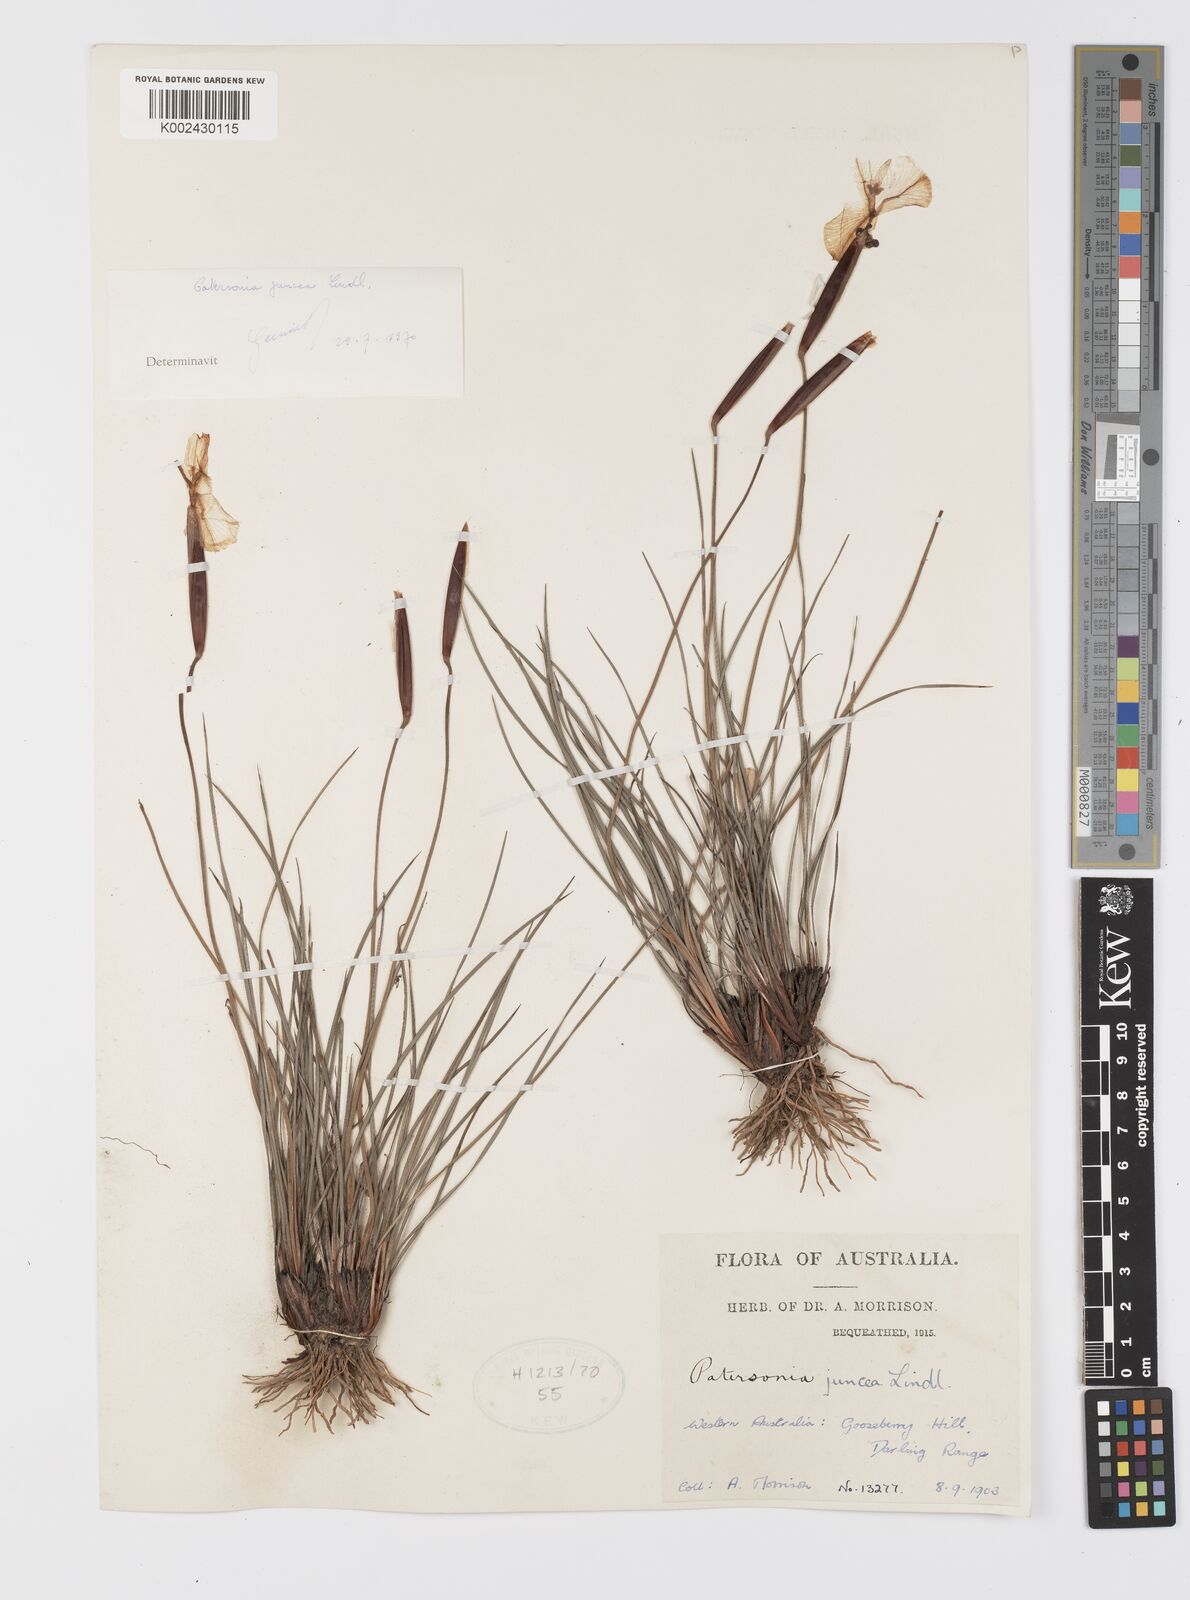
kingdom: Plantae
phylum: Tracheophyta
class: Liliopsida
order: Asparagales
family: Iridaceae
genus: Patersonia
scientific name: Patersonia juncea
